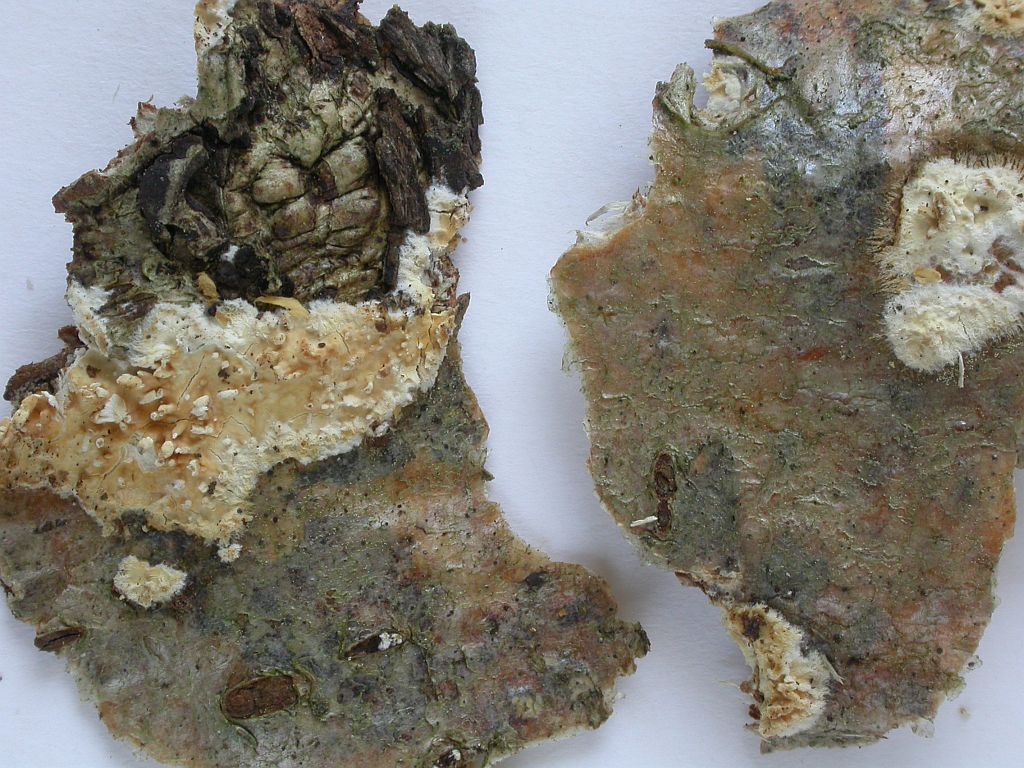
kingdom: Fungi
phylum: Basidiomycota
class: Agaricomycetes
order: Hymenochaetales
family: Schizoporaceae
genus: Xylodon
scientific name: Xylodon radula
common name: grovtandet kalkskind
